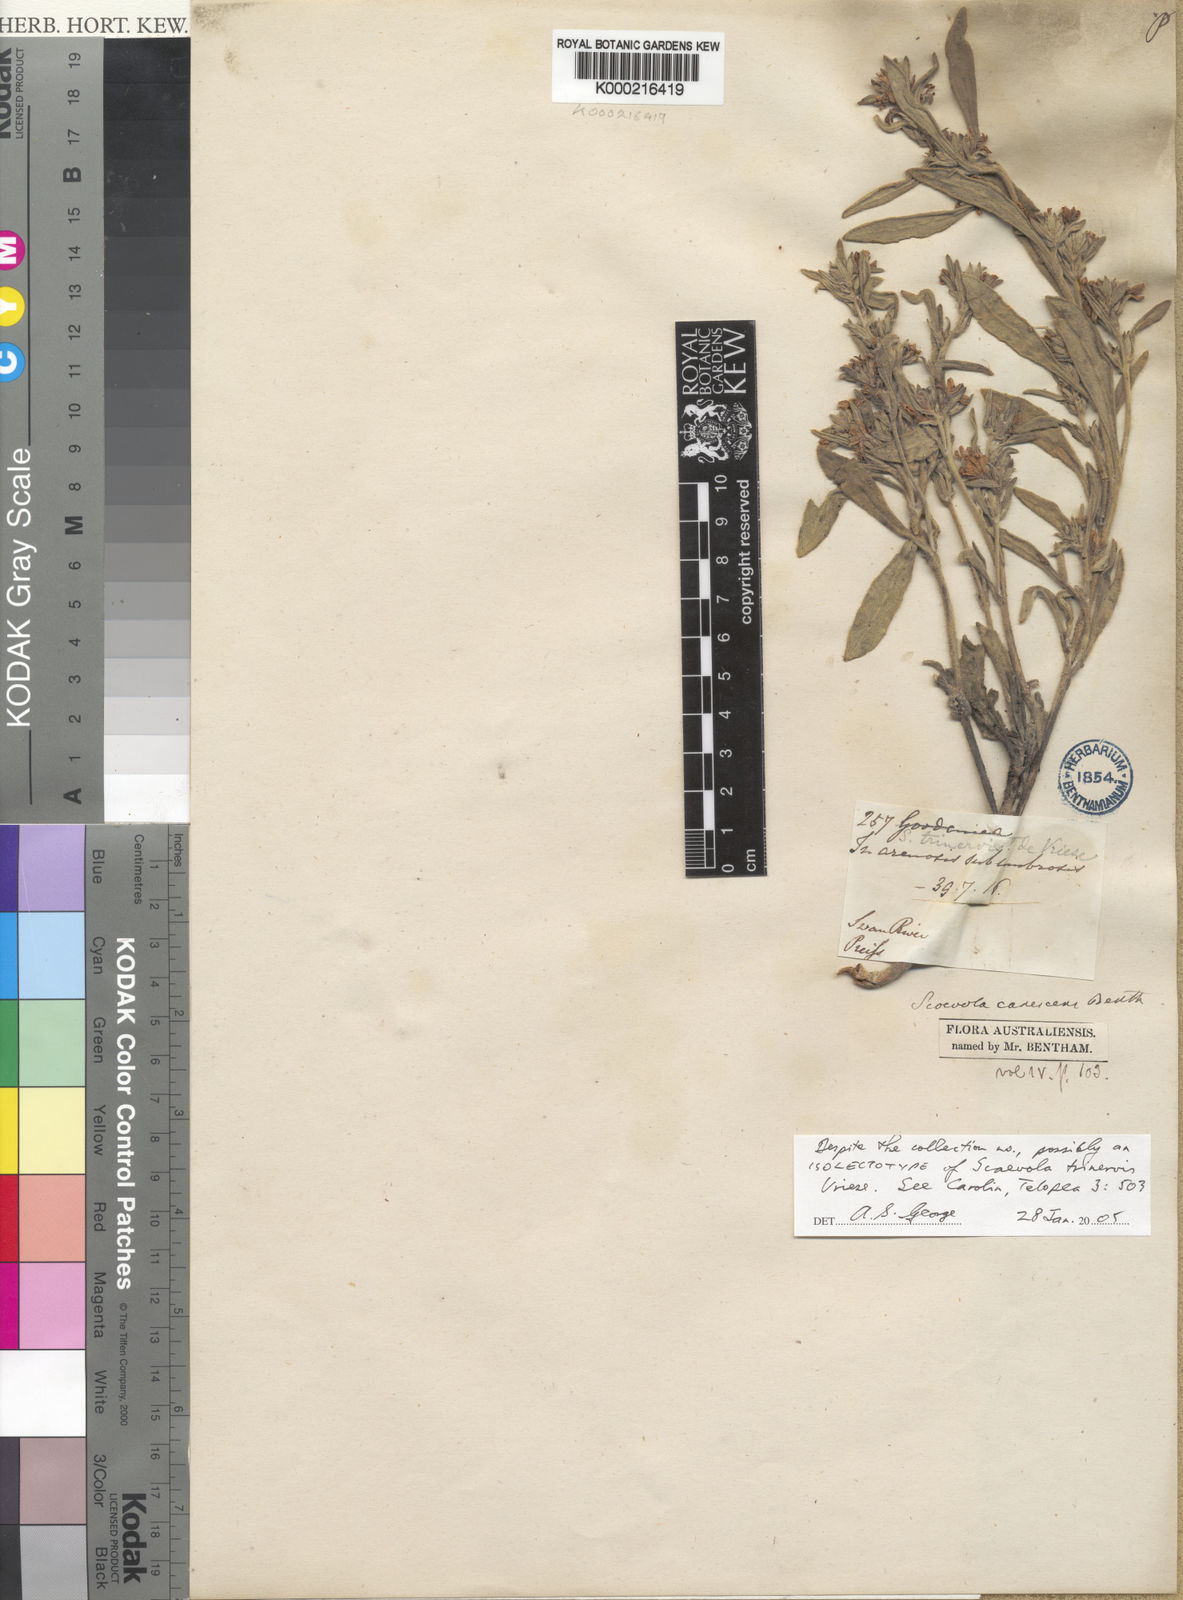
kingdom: Plantae
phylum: Tracheophyta
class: Magnoliopsida
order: Asterales
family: Goodeniaceae
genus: Scaevola
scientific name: Scaevola canescens
